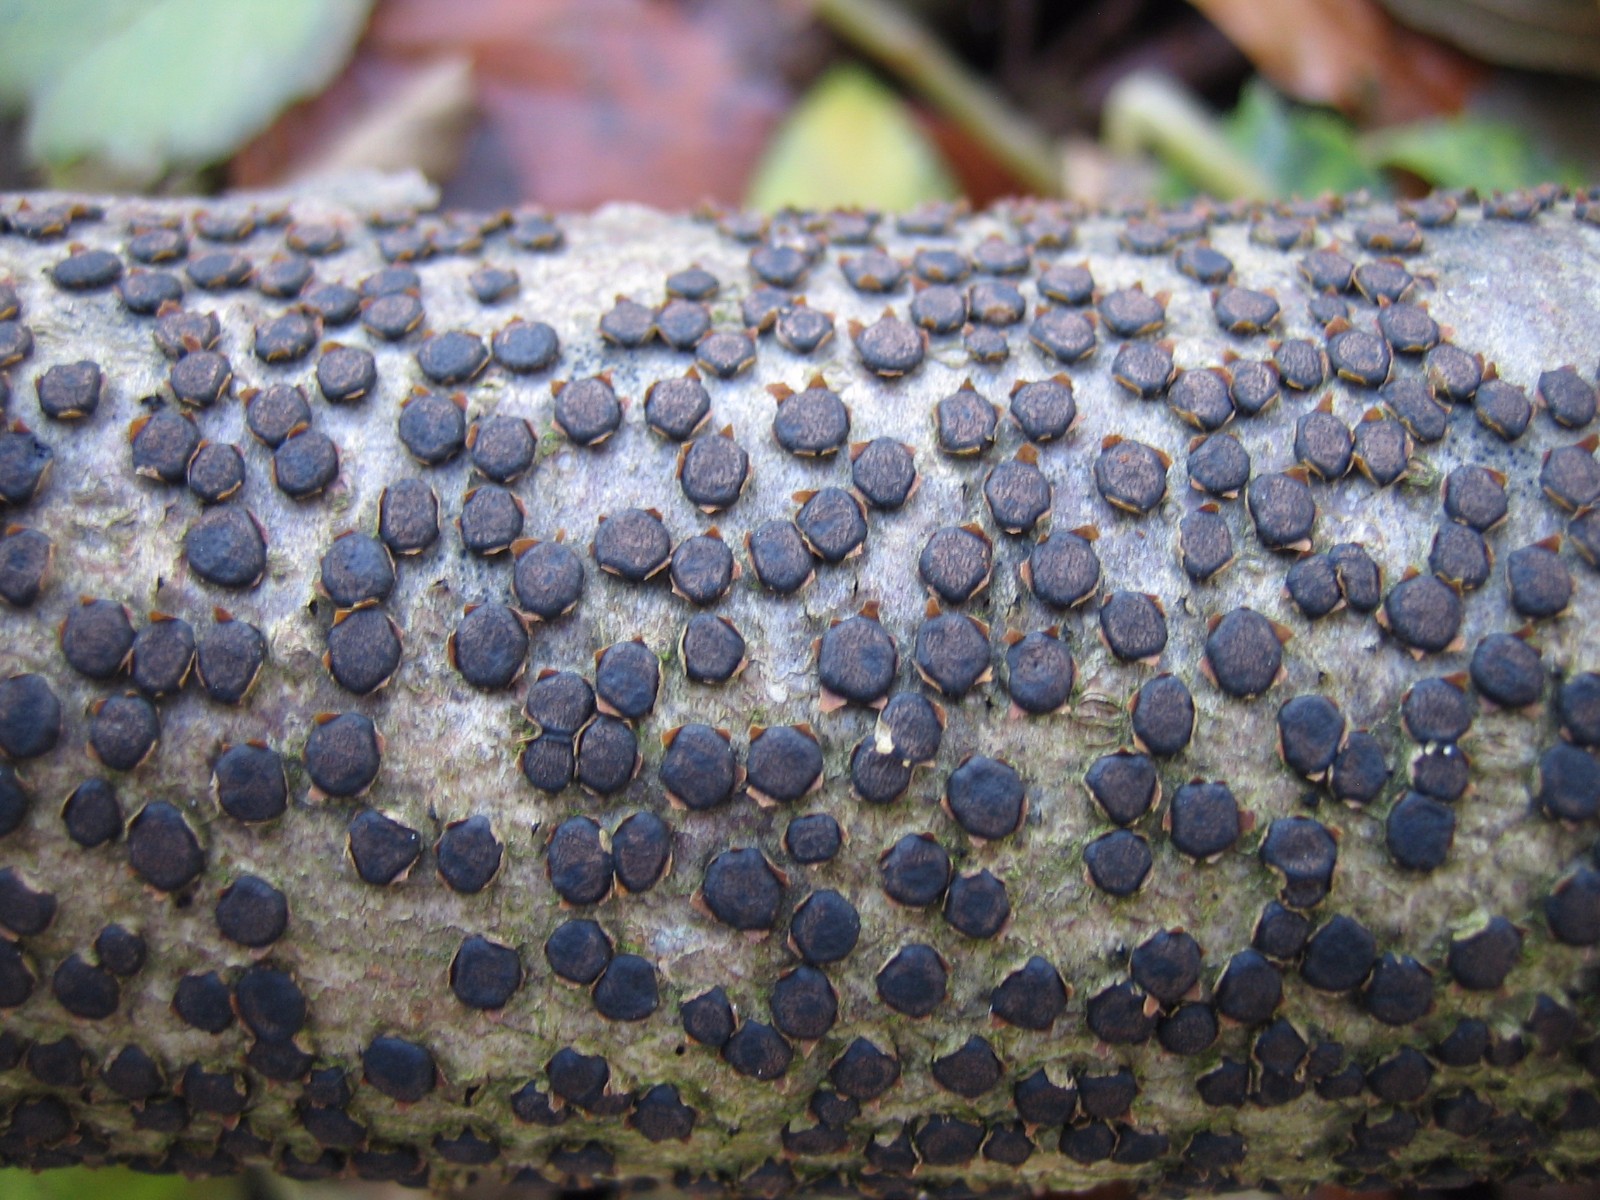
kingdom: Fungi
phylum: Ascomycota
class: Sordariomycetes
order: Xylariales
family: Diatrypaceae
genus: Diatrype
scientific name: Diatrype disciformis
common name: kant-kulskorpe
